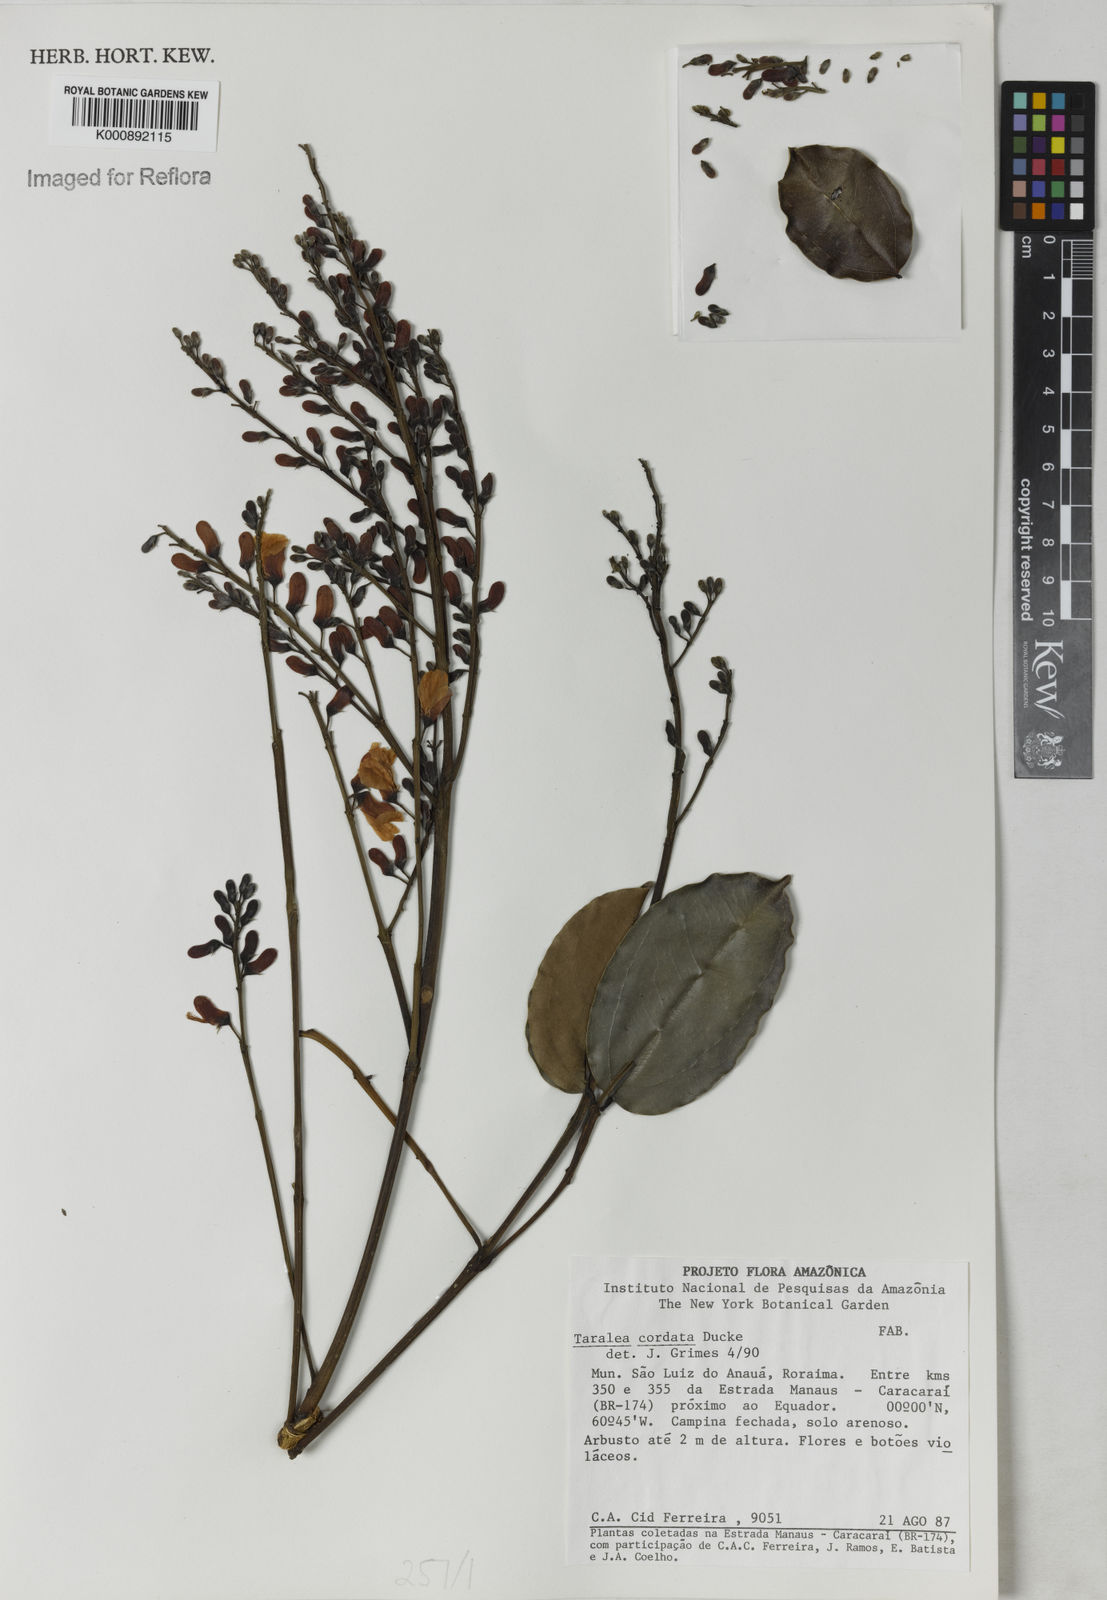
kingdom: Plantae
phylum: Tracheophyta
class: Magnoliopsida
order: Fabales
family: Fabaceae
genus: Taralea
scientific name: Taralea cordata
